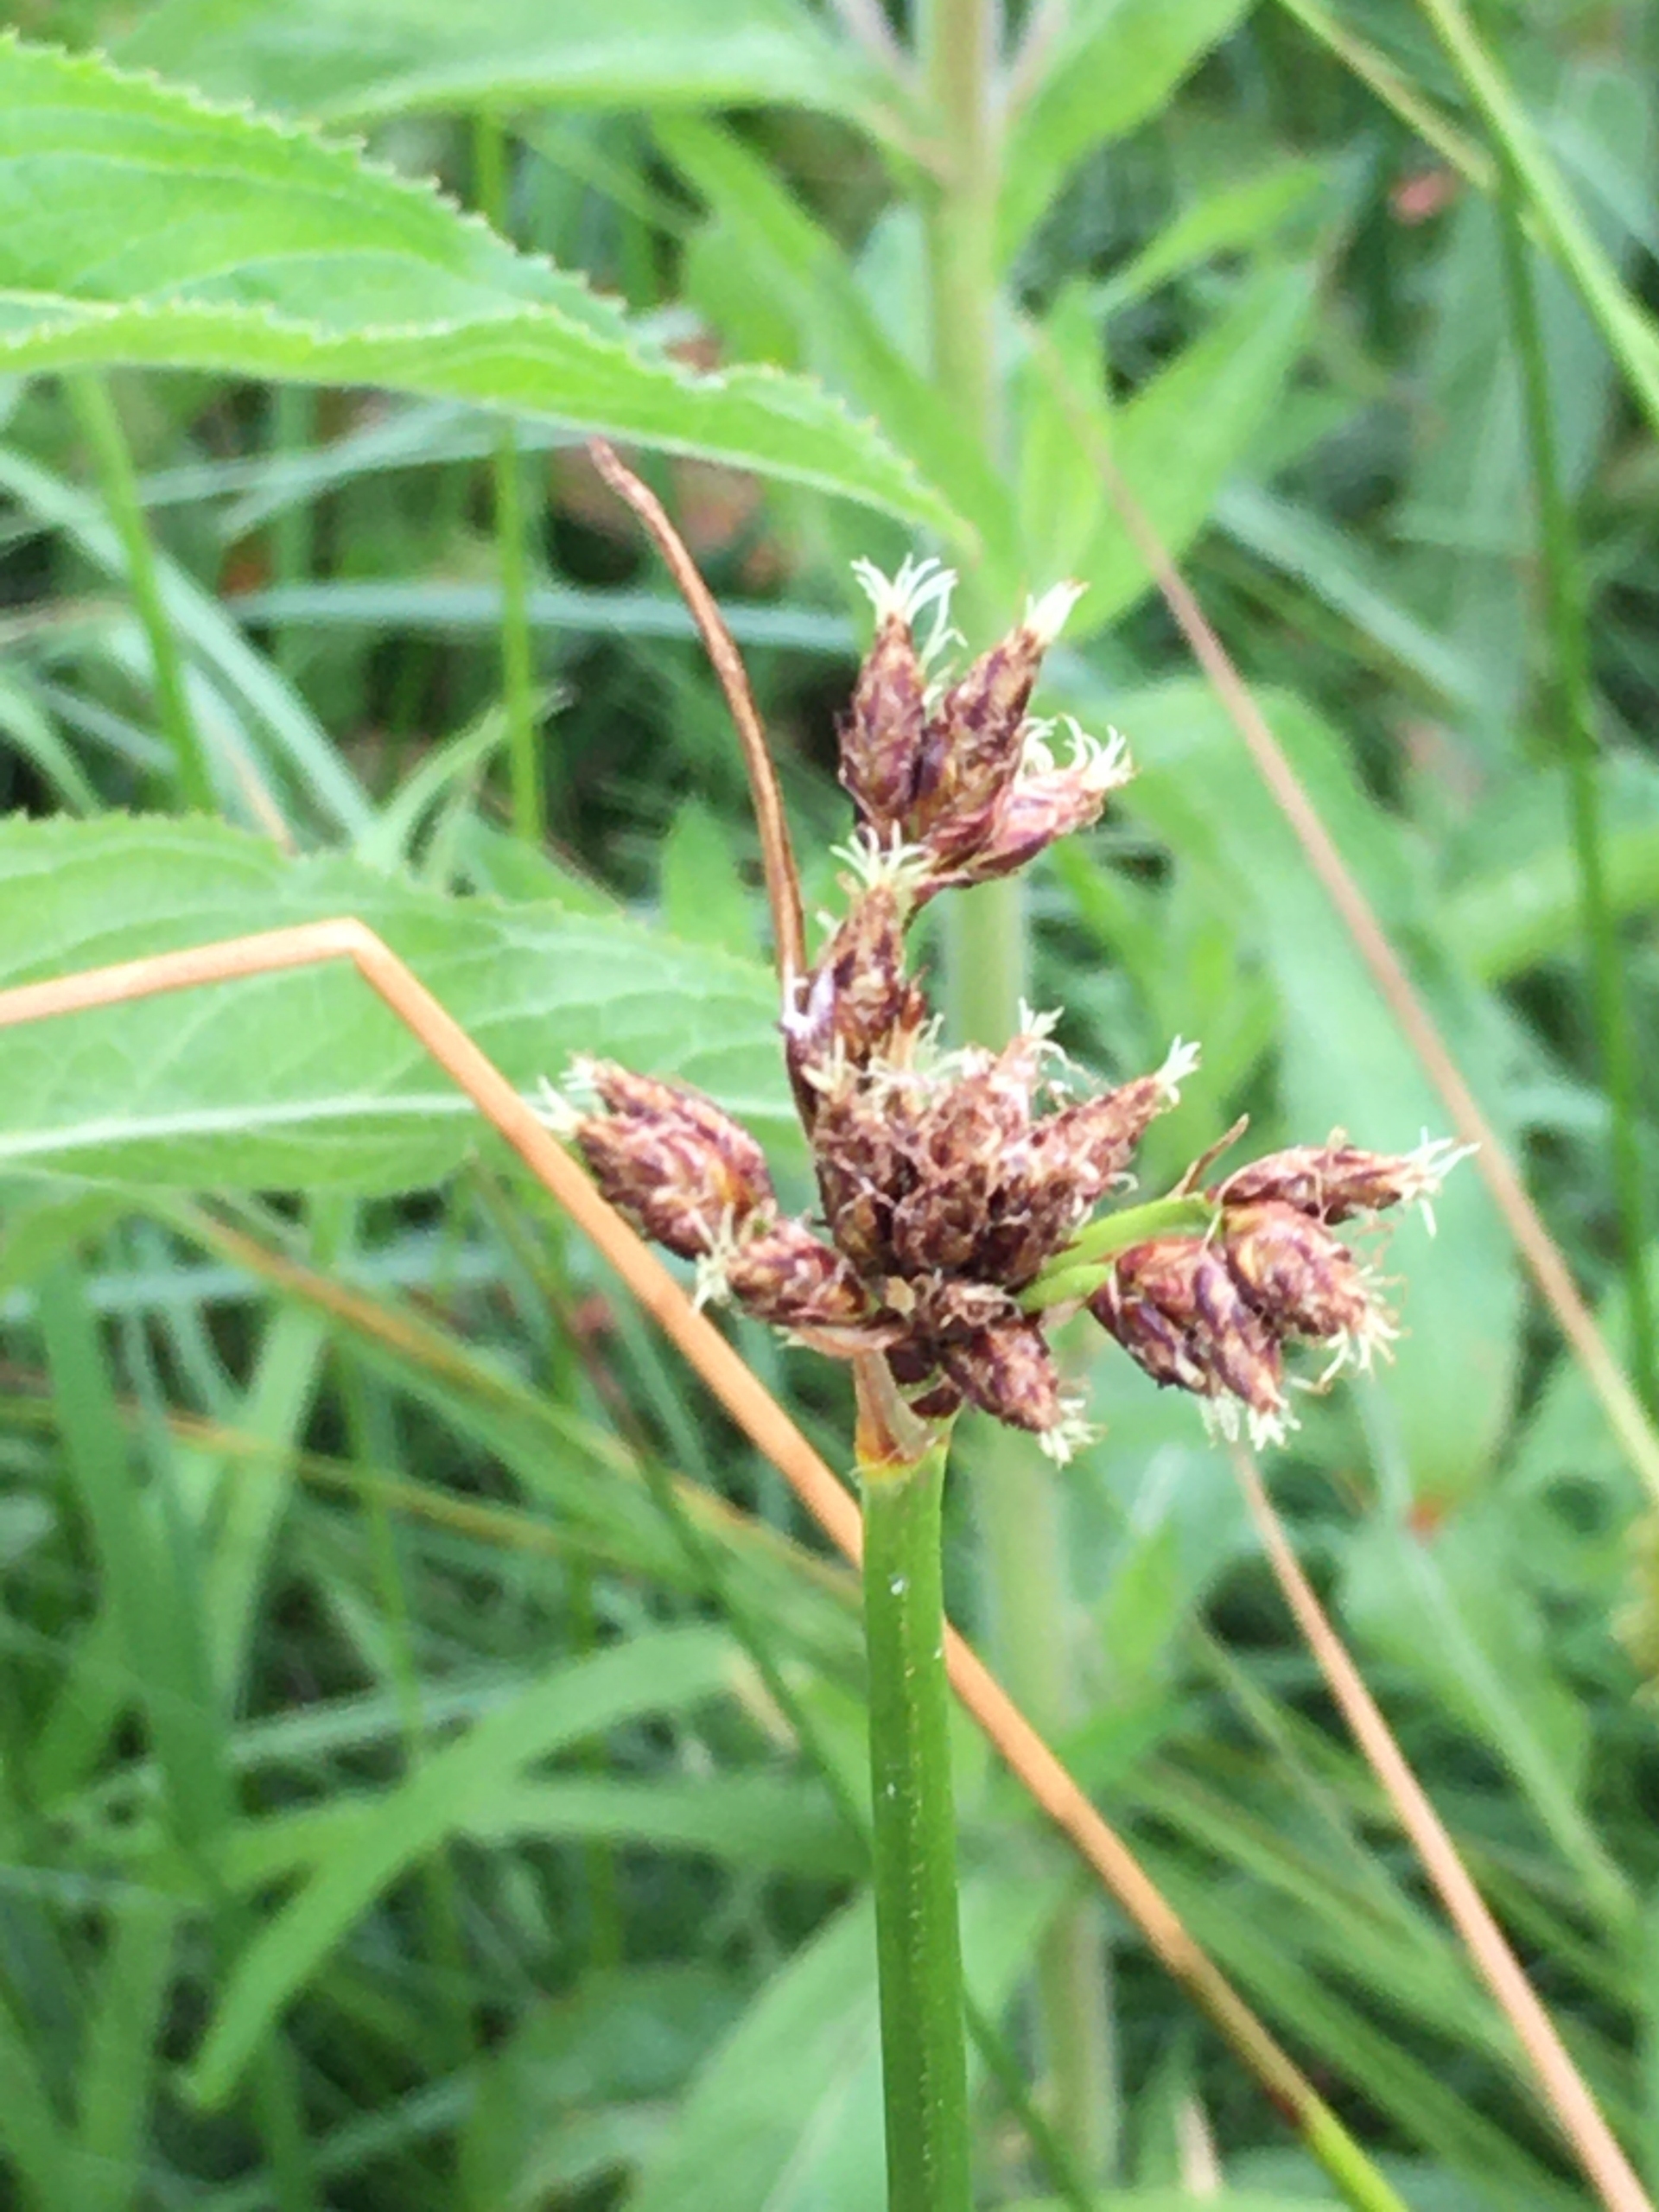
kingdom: Plantae
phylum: Tracheophyta
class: Liliopsida
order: Poales
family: Cyperaceae
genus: Schoenoplectus
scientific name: Schoenoplectus lacustris
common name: Sø-kogleaks
